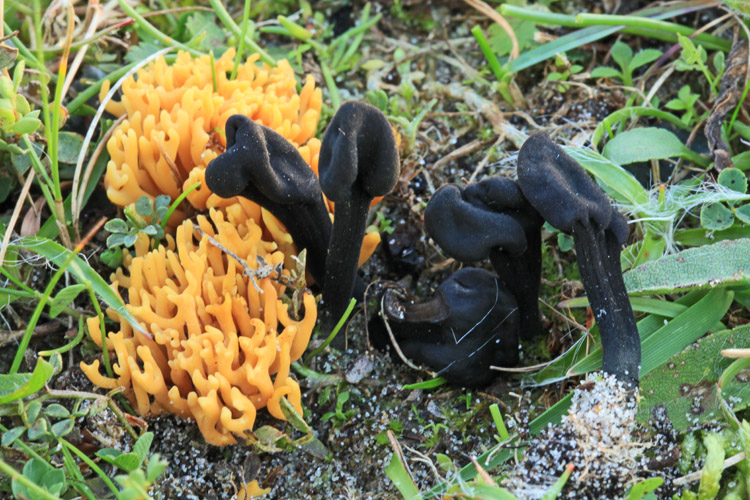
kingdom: Fungi
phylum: Ascomycota
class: Geoglossomycetes
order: Geoglossales
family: Geoglossaceae
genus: Trichoglossum
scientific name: Trichoglossum hirsutum
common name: håret jordtunge
